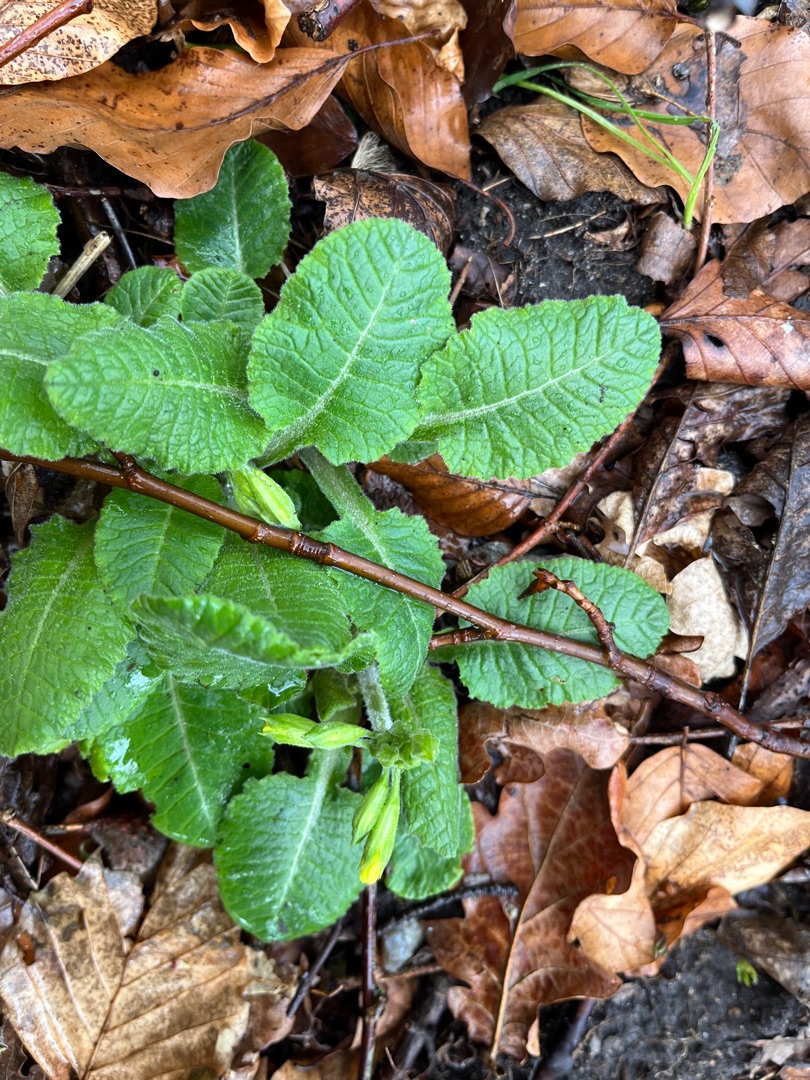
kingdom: Plantae
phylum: Tracheophyta
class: Magnoliopsida
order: Ericales
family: Primulaceae
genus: Primula
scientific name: Primula elatior
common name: Fladkravet kodriver
